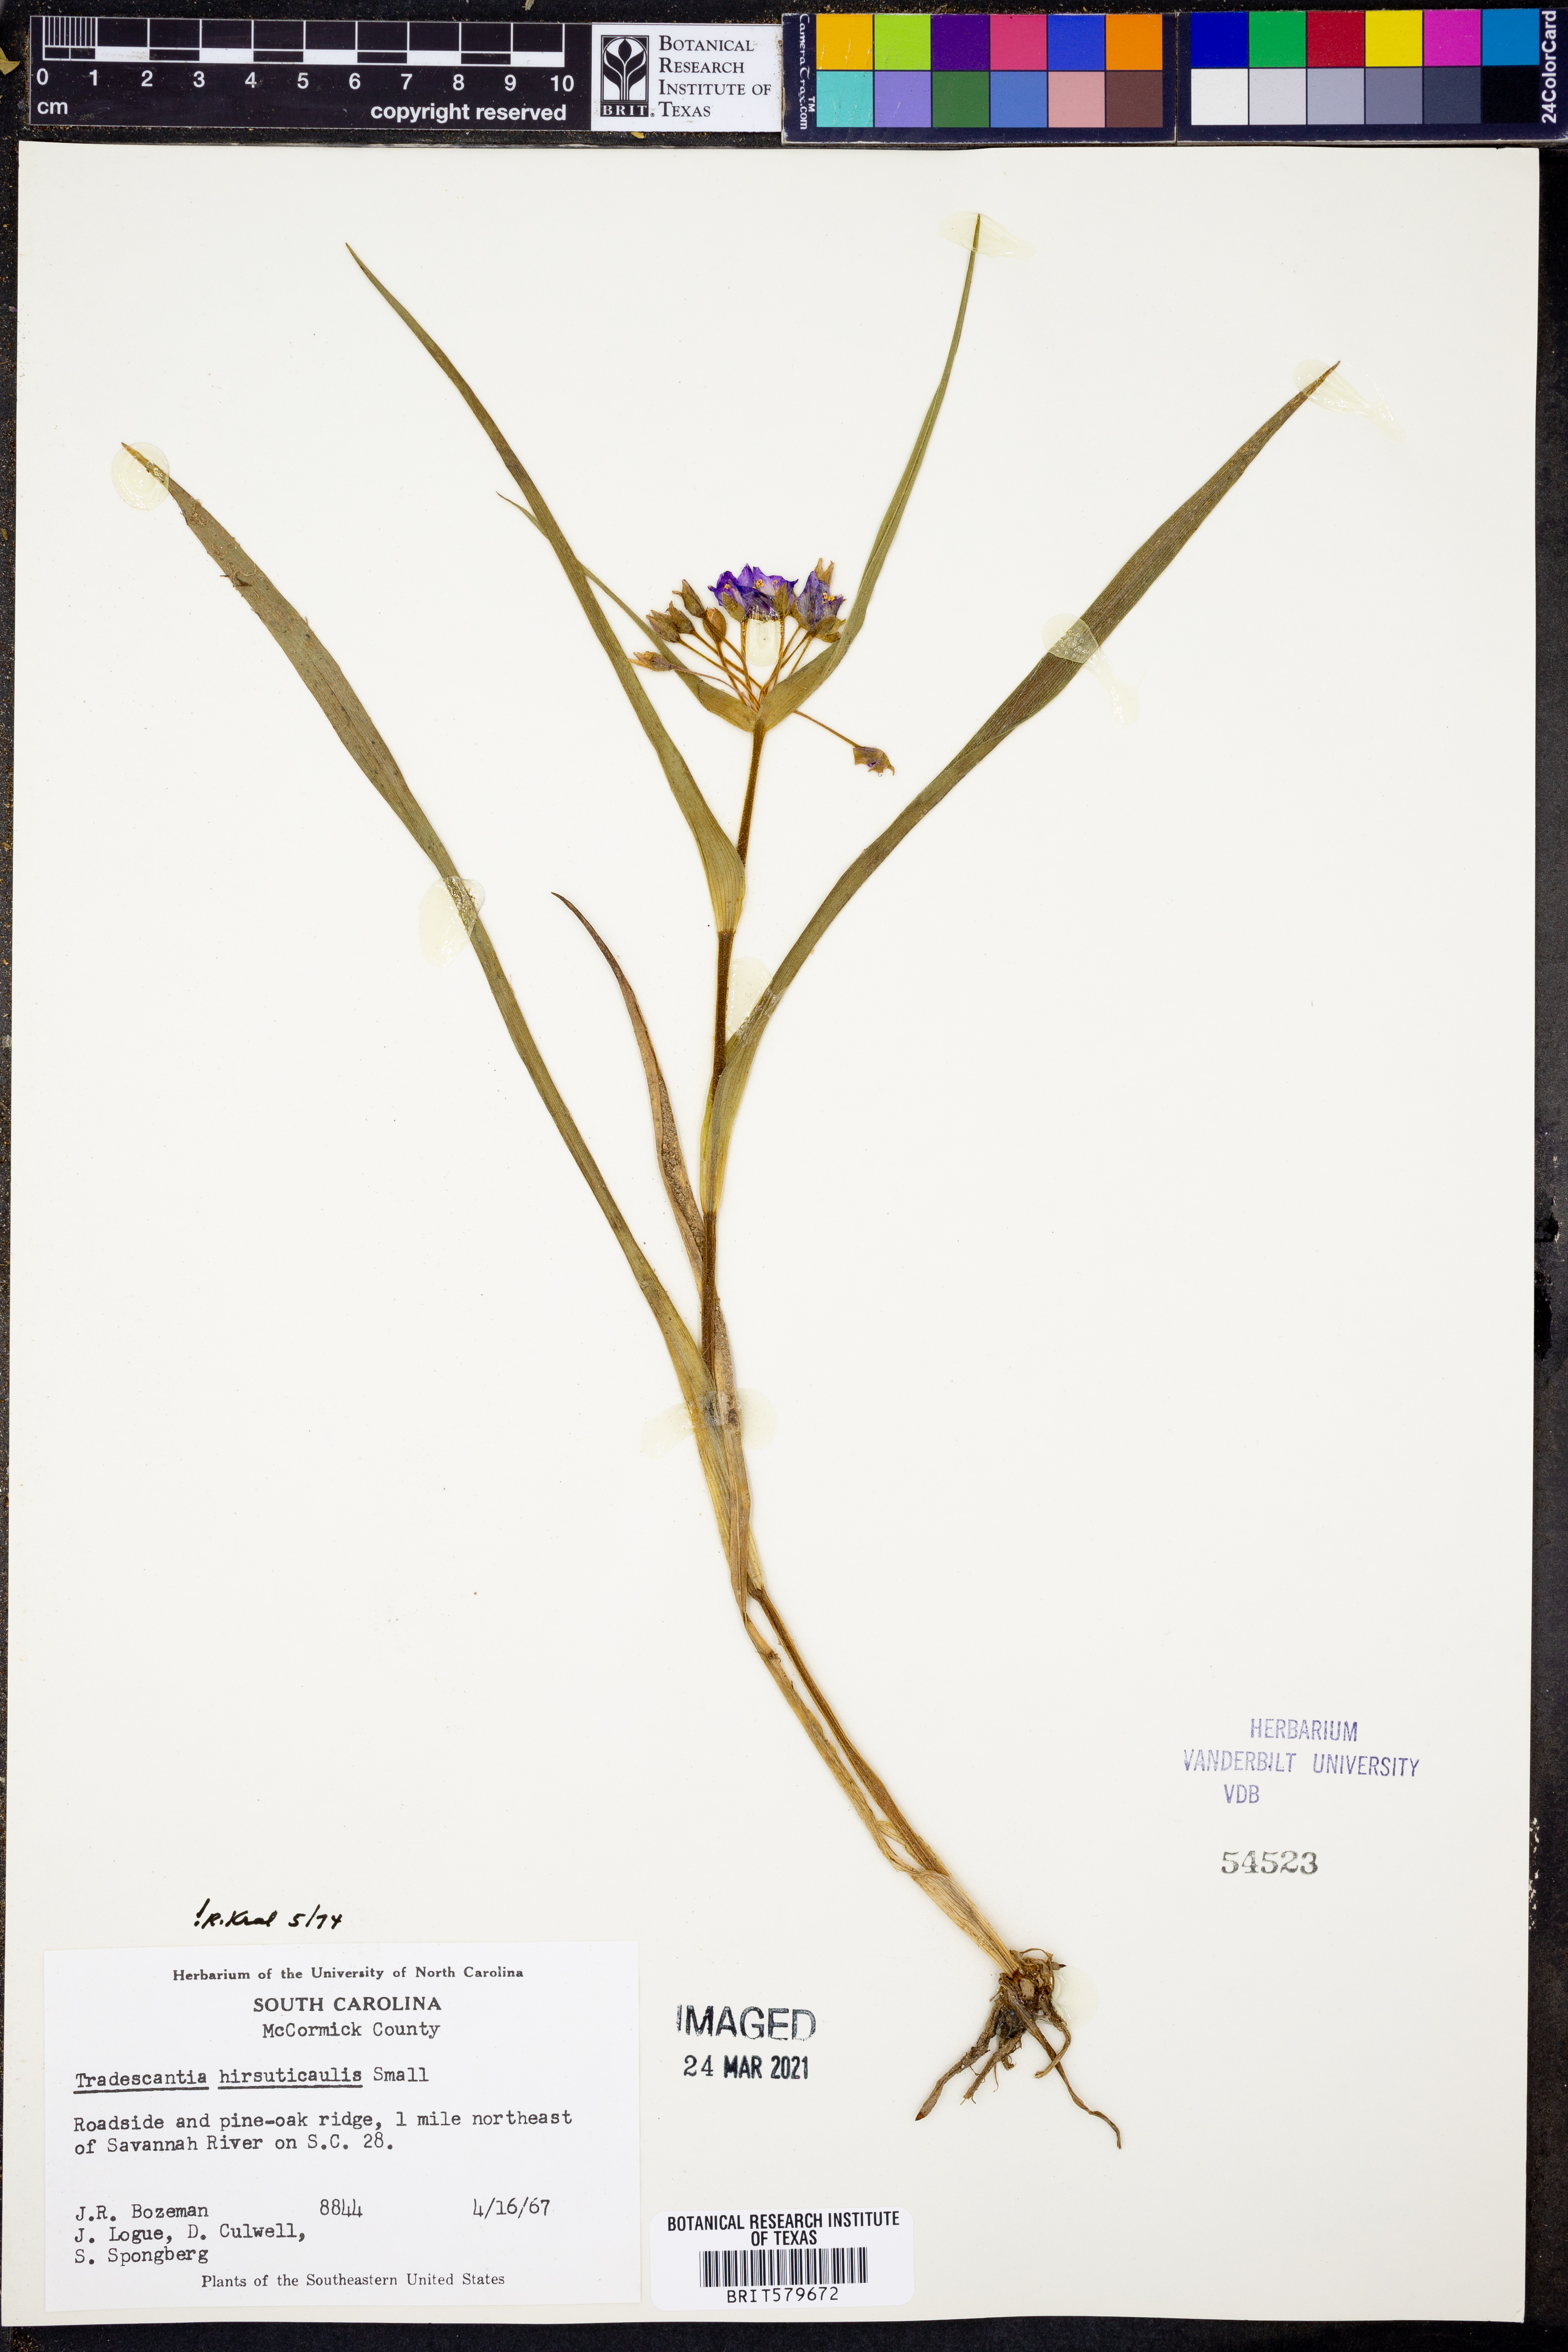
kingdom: Plantae
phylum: Tracheophyta
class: Liliopsida
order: Commelinales
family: Commelinaceae
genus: Tradescantia
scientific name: Tradescantia hirsuticaulis
